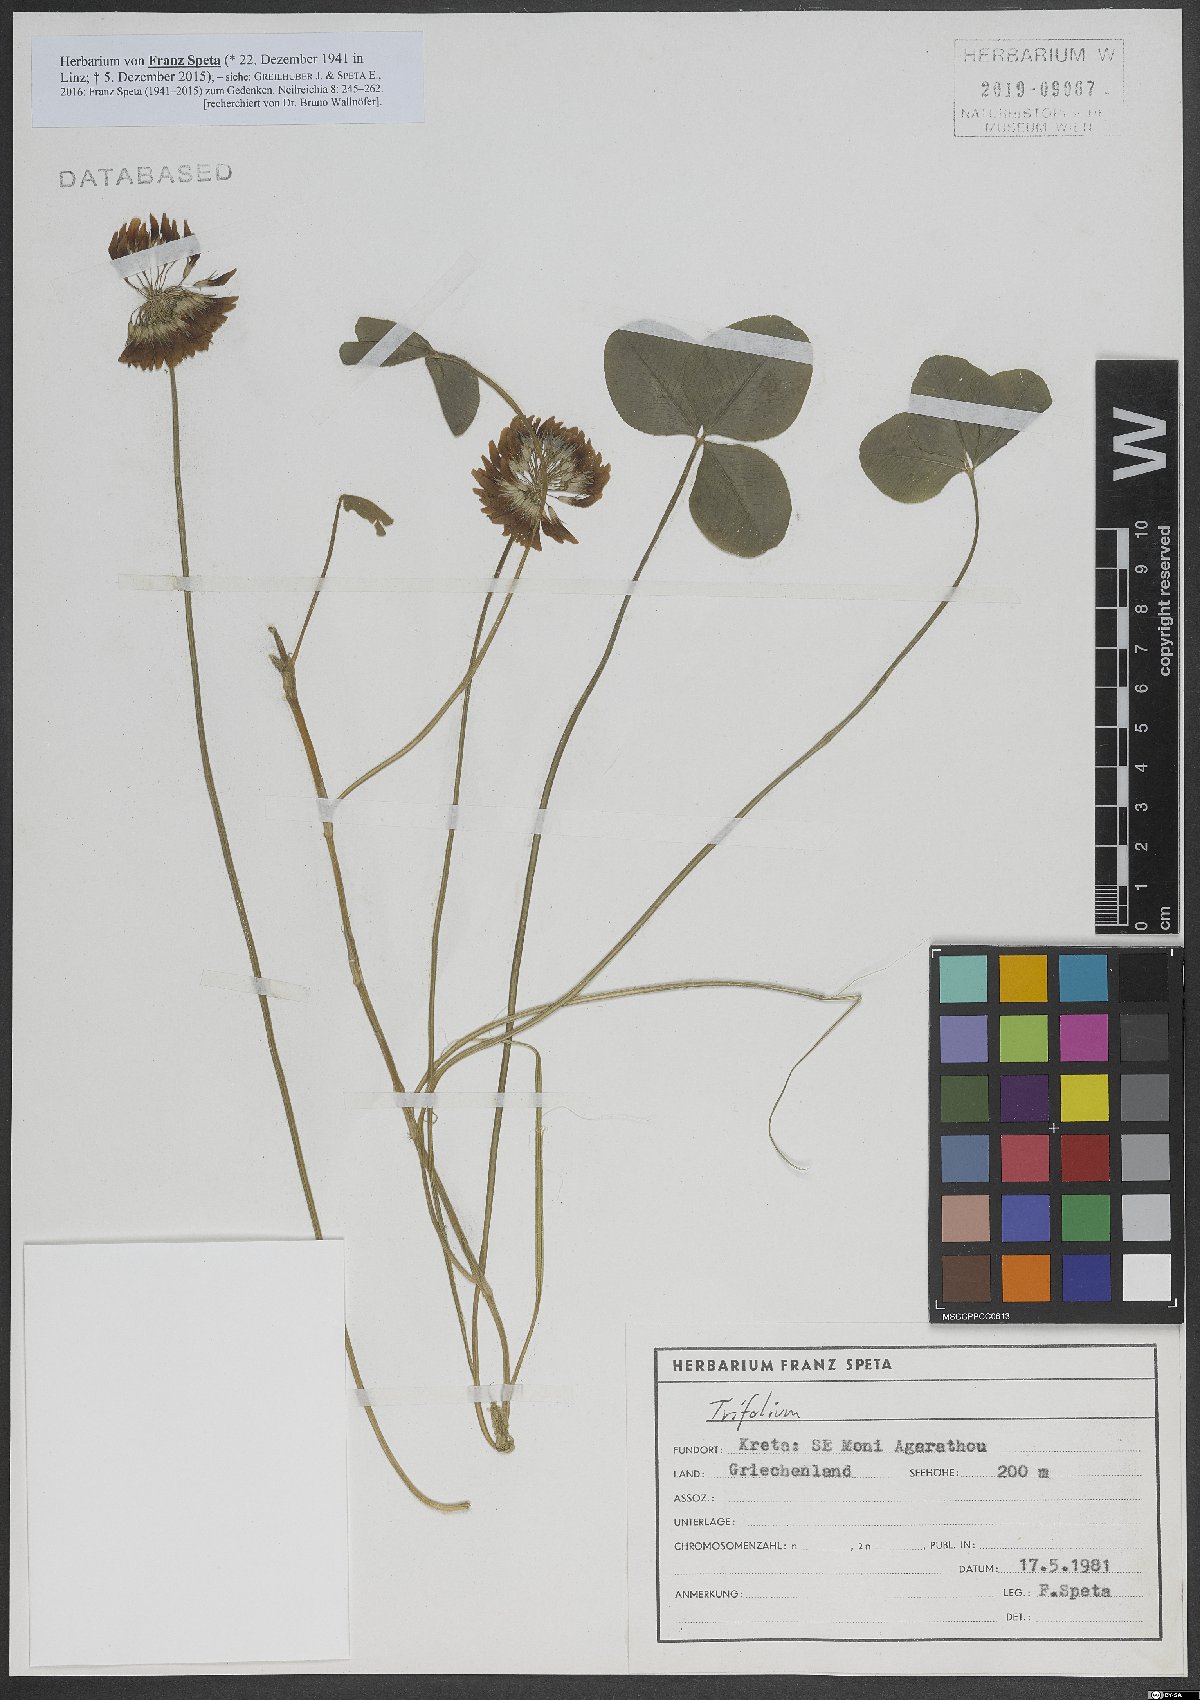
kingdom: Plantae
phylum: Tracheophyta
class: Magnoliopsida
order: Fabales
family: Fabaceae
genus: Trifolium
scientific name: Trifolium
